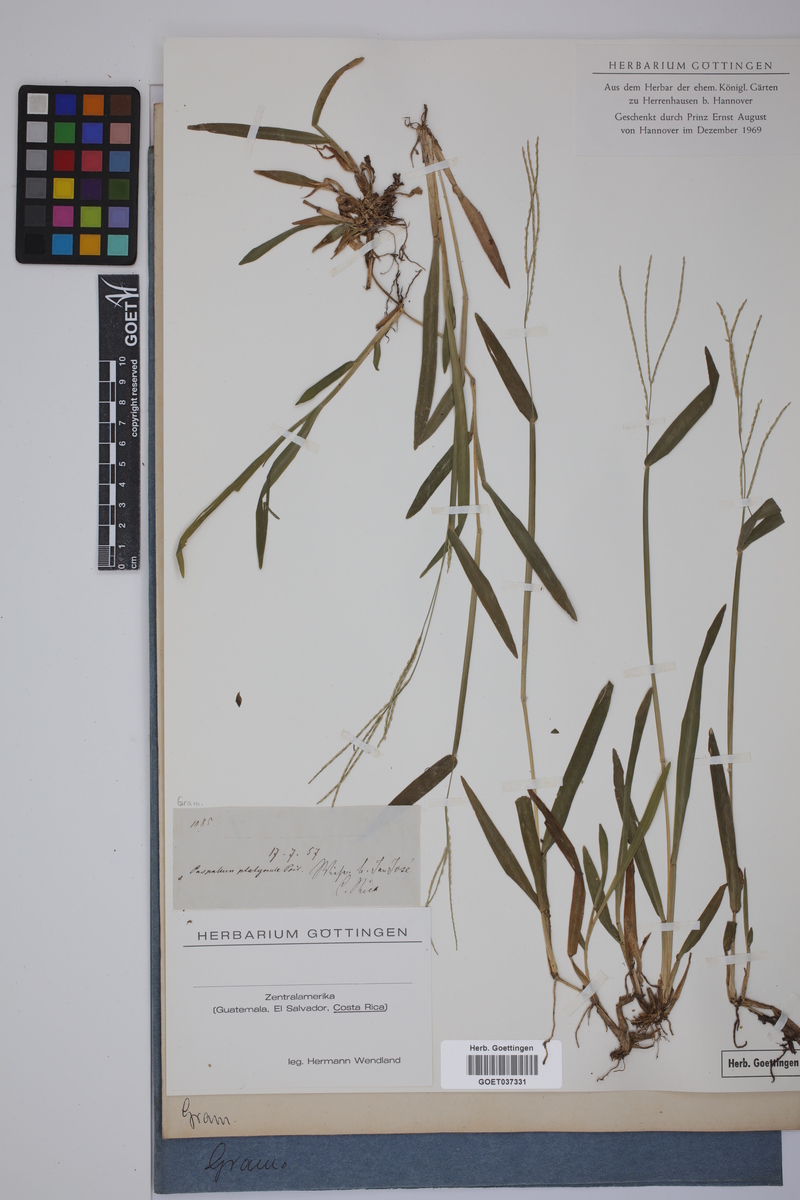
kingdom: Plantae
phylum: Tracheophyta
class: Liliopsida
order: Poales
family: Poaceae
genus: Axonopus
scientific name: Axonopus compressus
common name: American carpet grass
